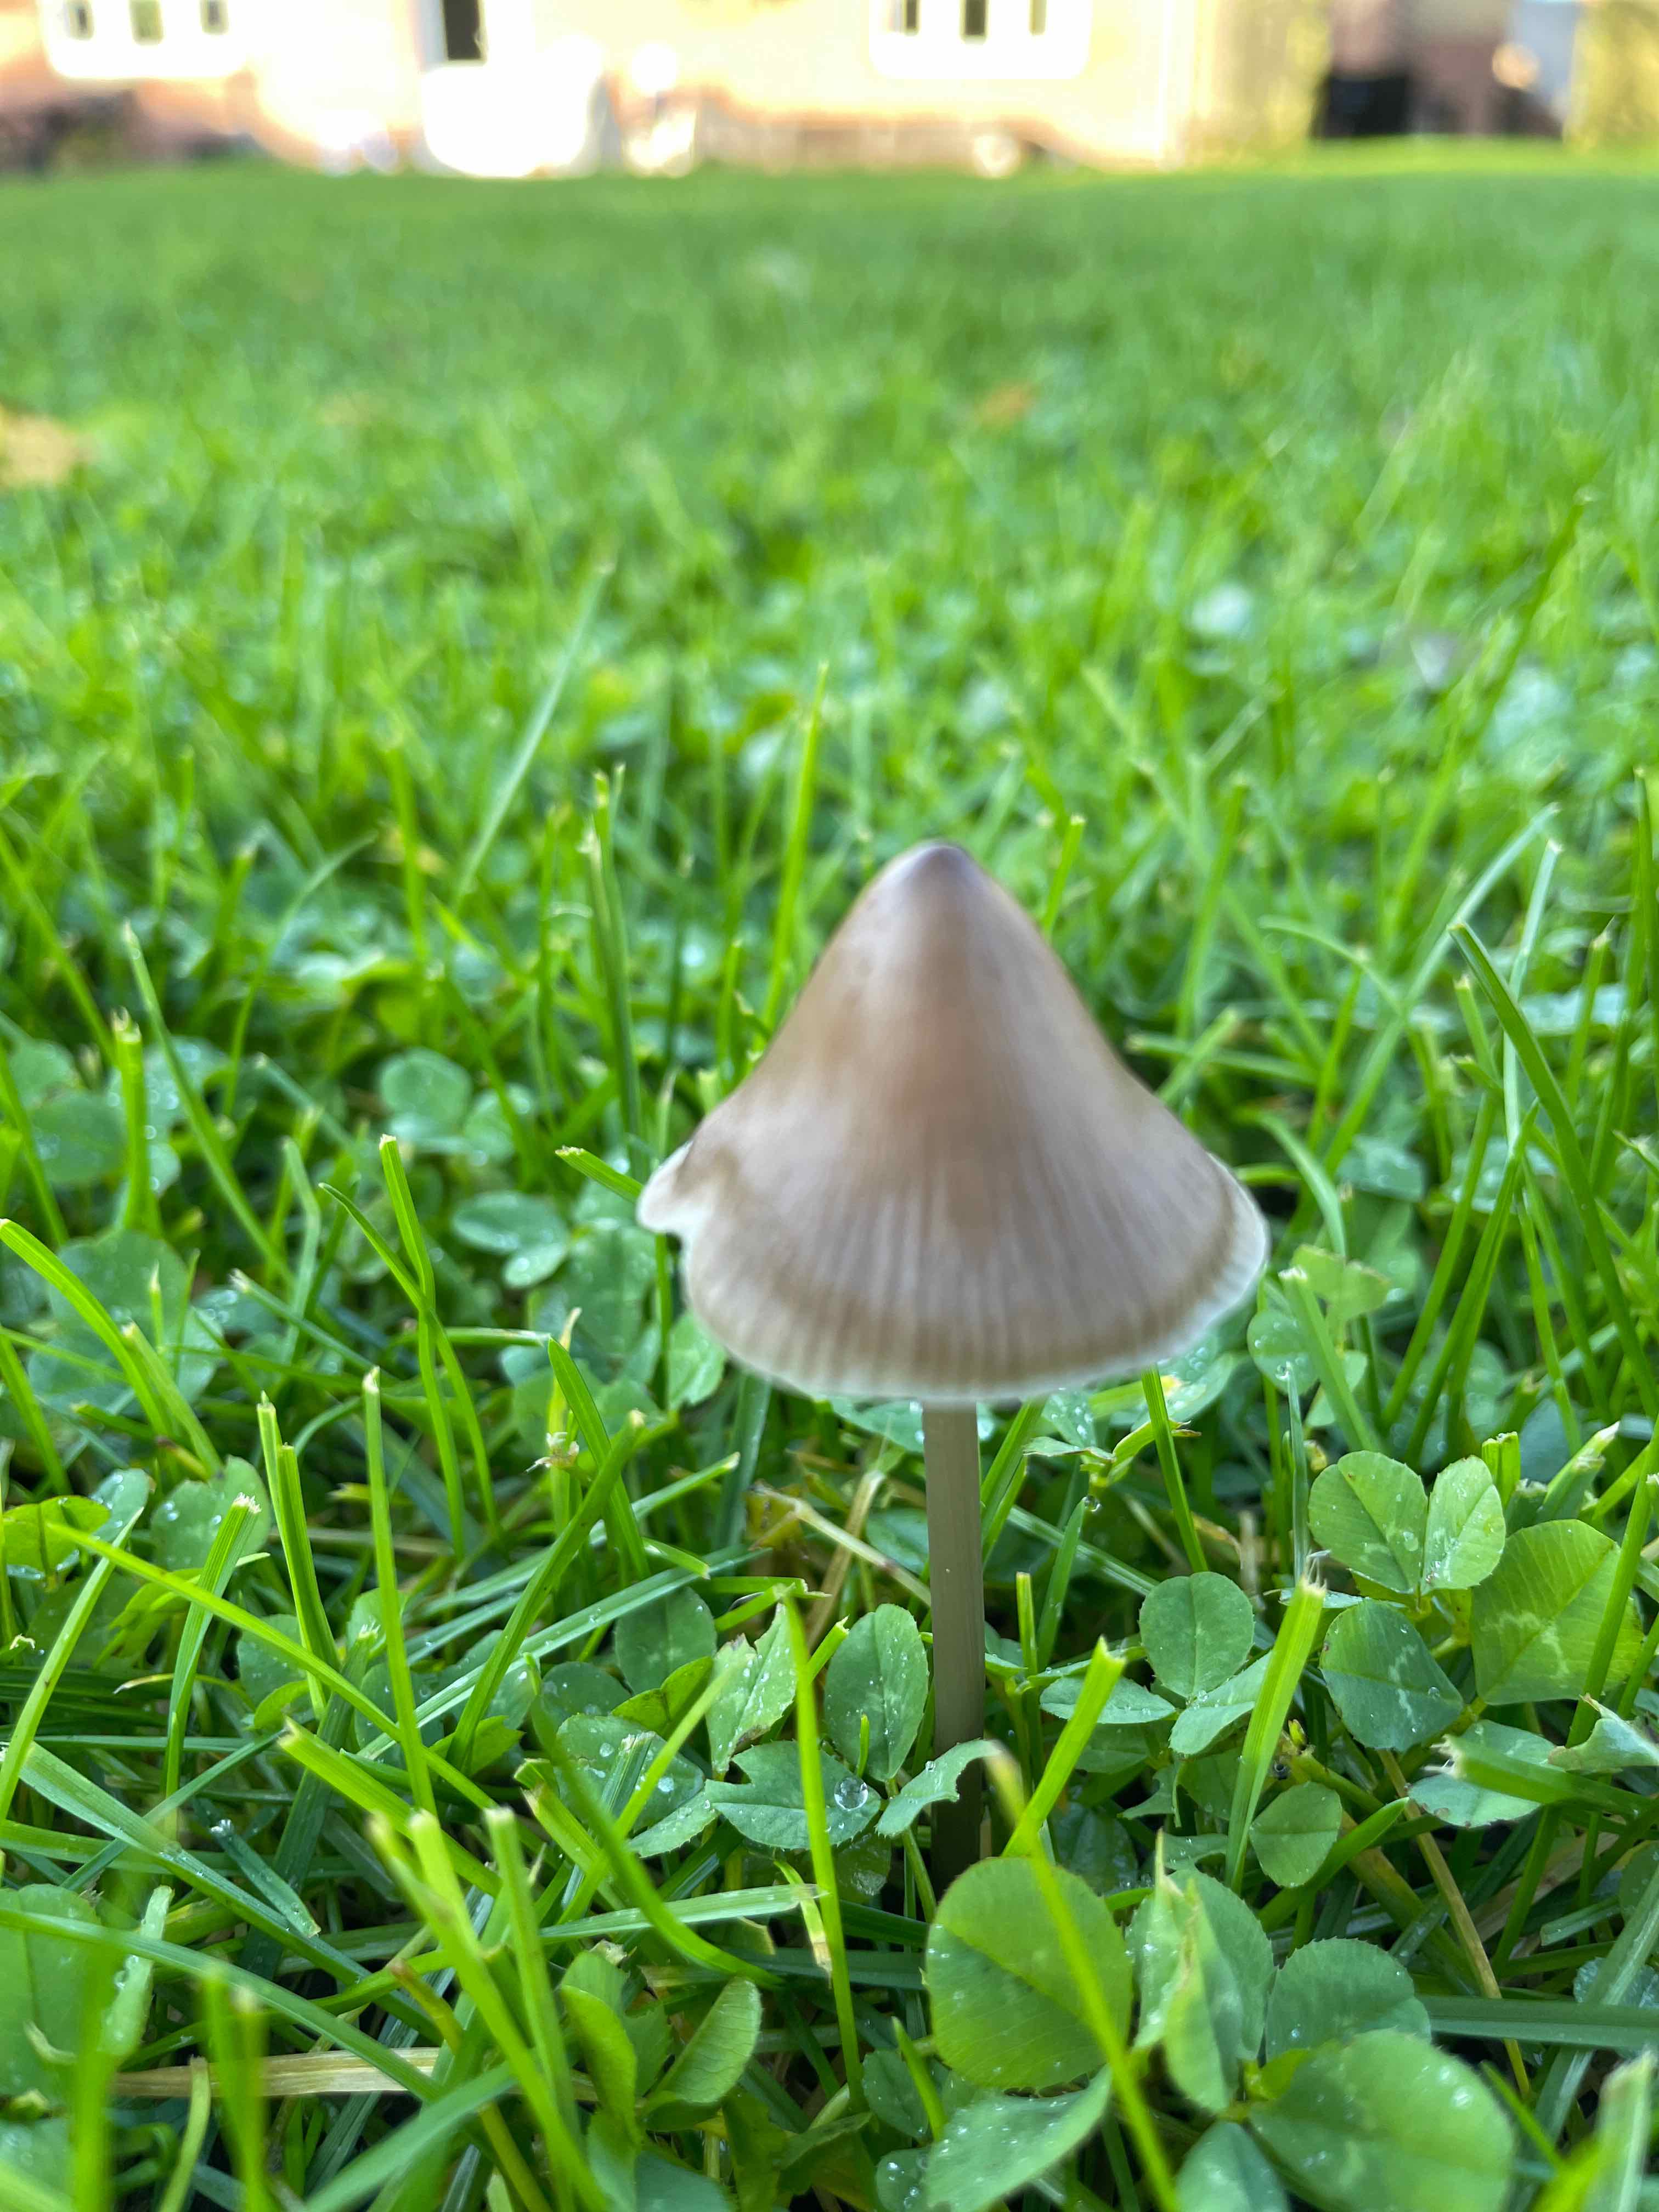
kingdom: Fungi
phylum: Basidiomycota
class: Agaricomycetes
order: Agaricales
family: Mycenaceae
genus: Mycena
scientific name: Mycena
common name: huesvamp
